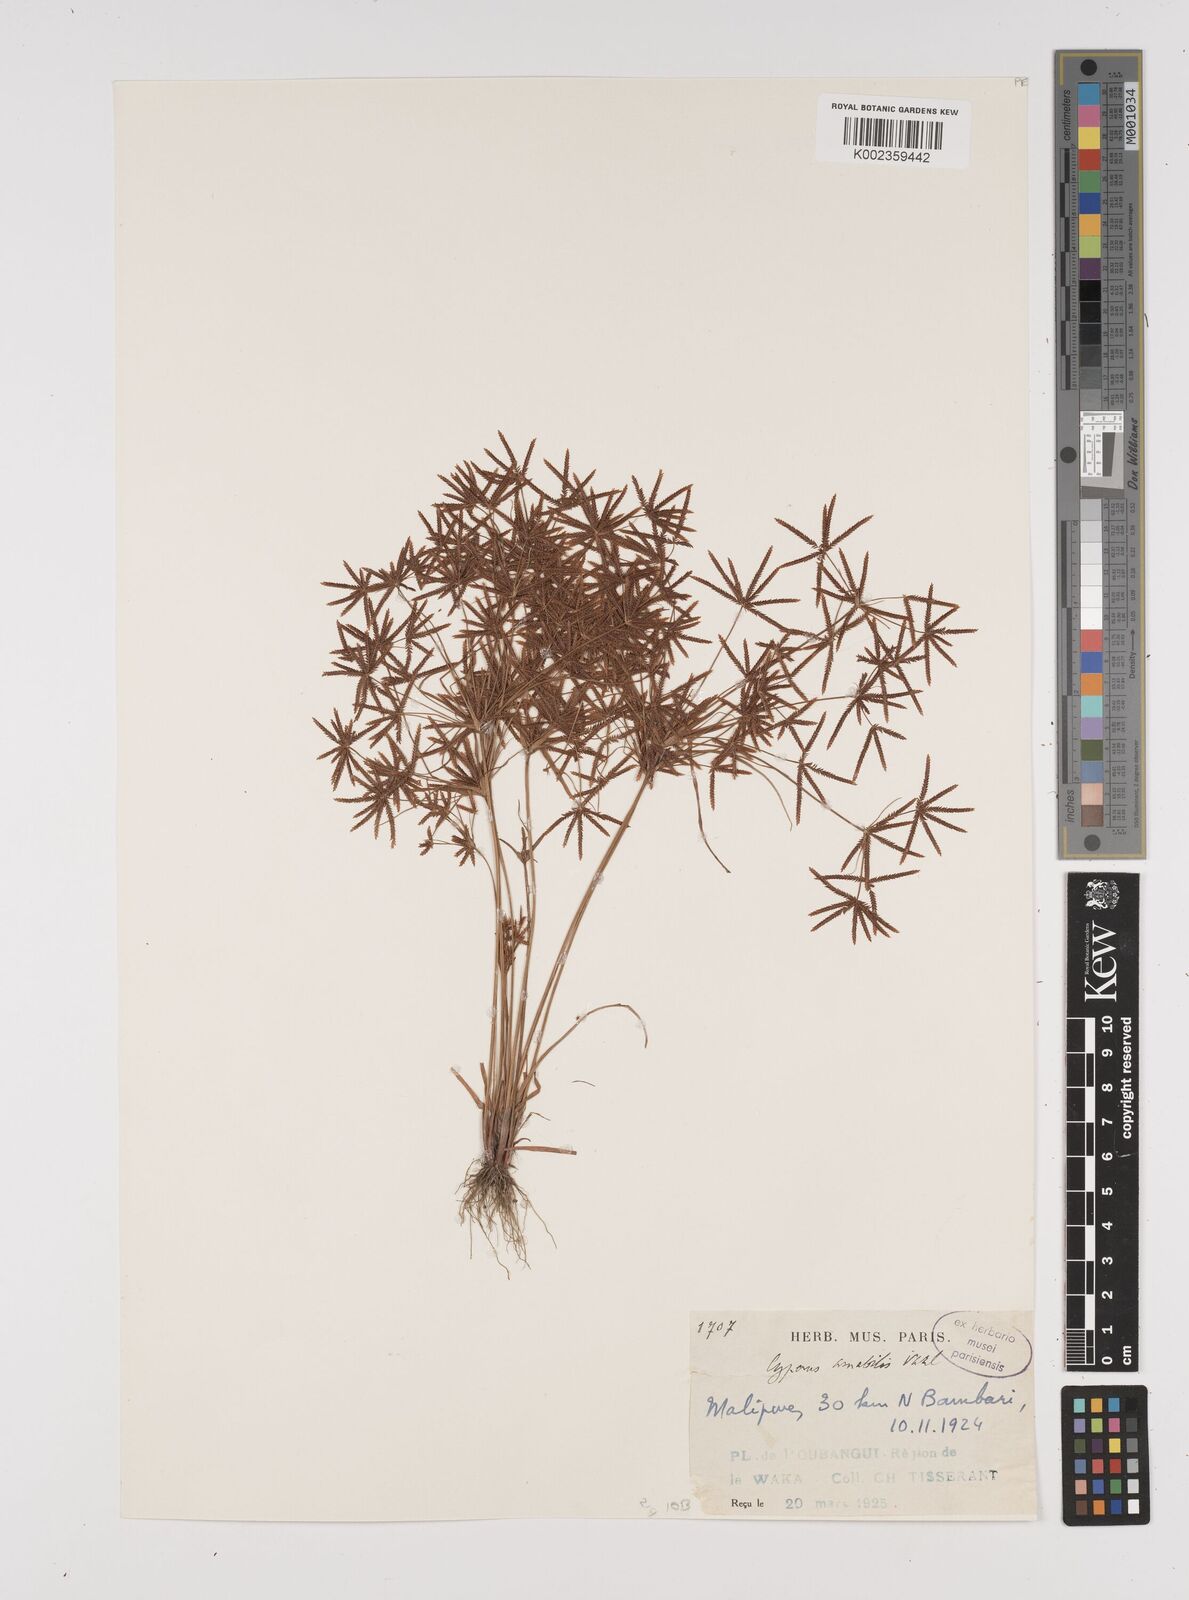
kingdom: Plantae
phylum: Tracheophyta
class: Liliopsida
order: Poales
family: Cyperaceae
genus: Cyperus
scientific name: Cyperus amabilis
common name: Foothill flat sedge
